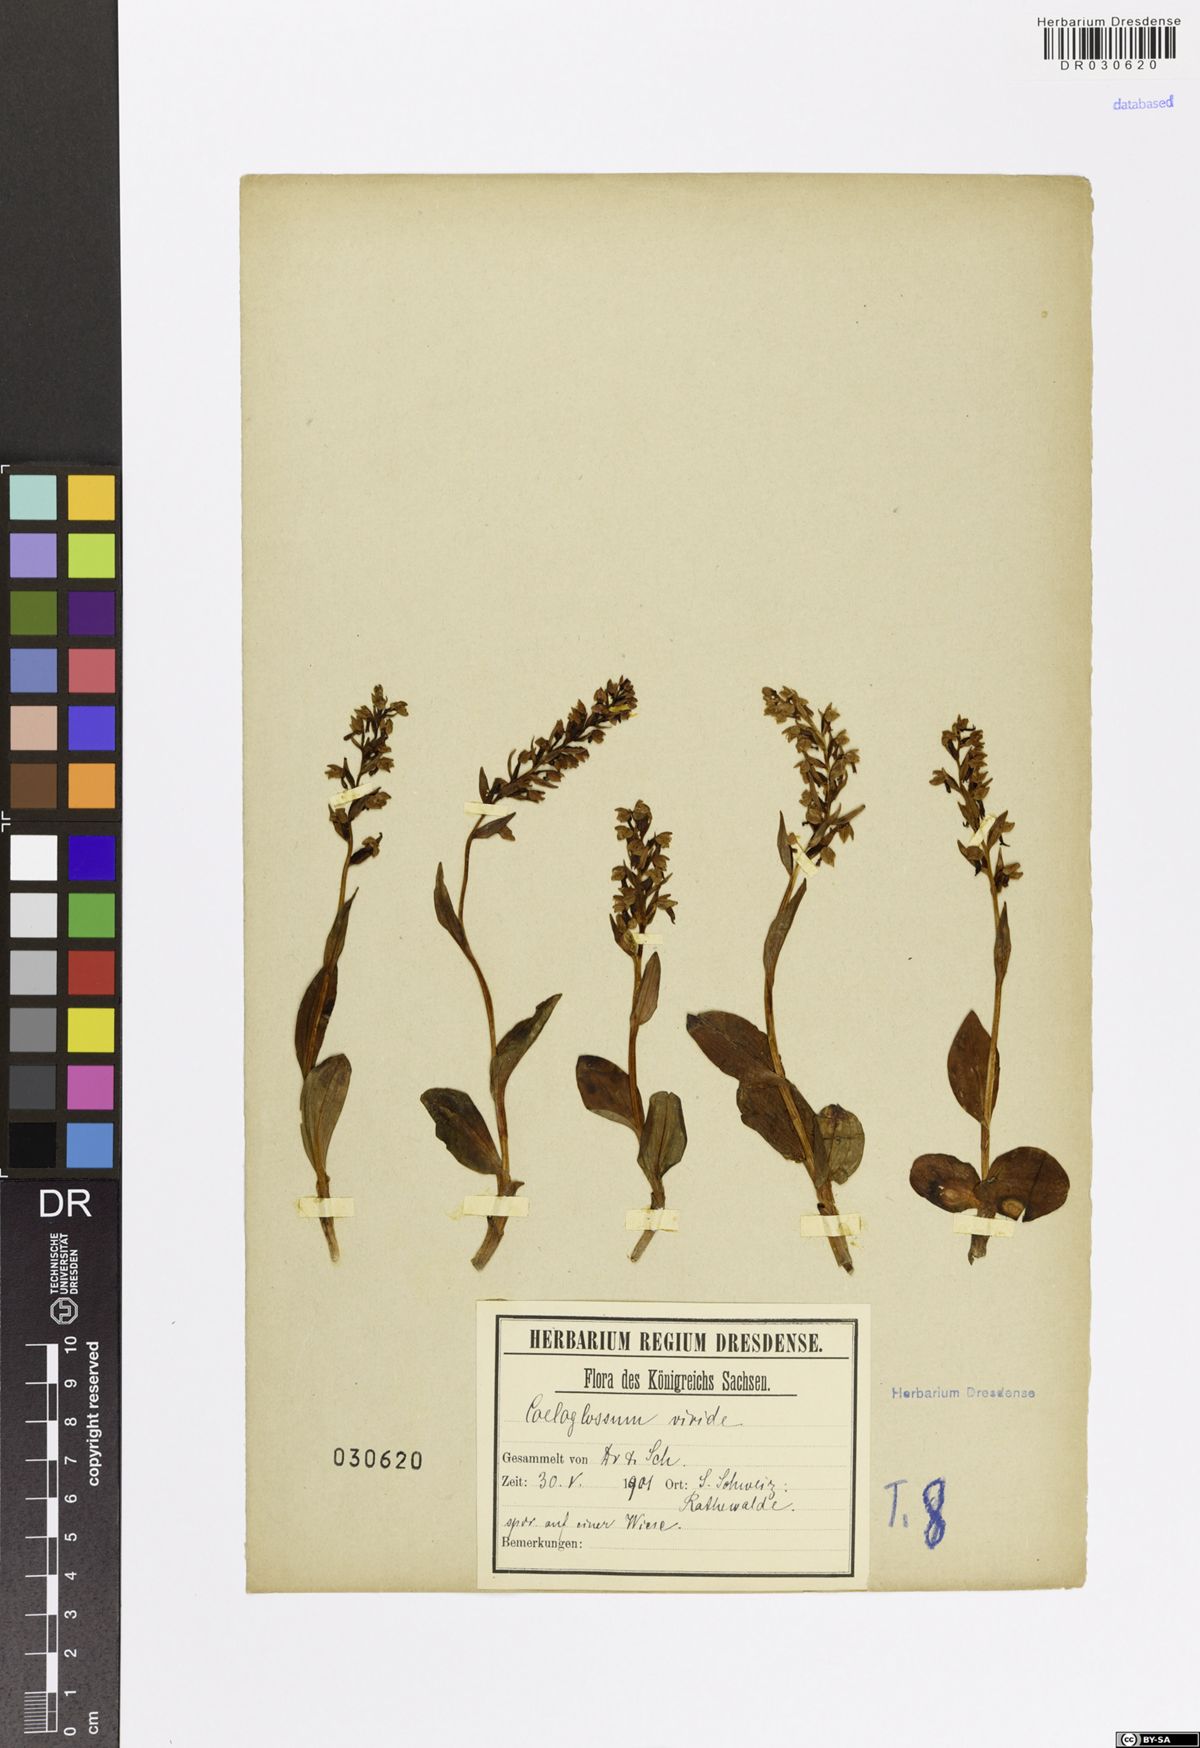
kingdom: Plantae
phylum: Tracheophyta
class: Liliopsida
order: Asparagales
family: Orchidaceae
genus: Dactylorhiza
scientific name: Dactylorhiza viridis
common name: Longbract frog orchid
